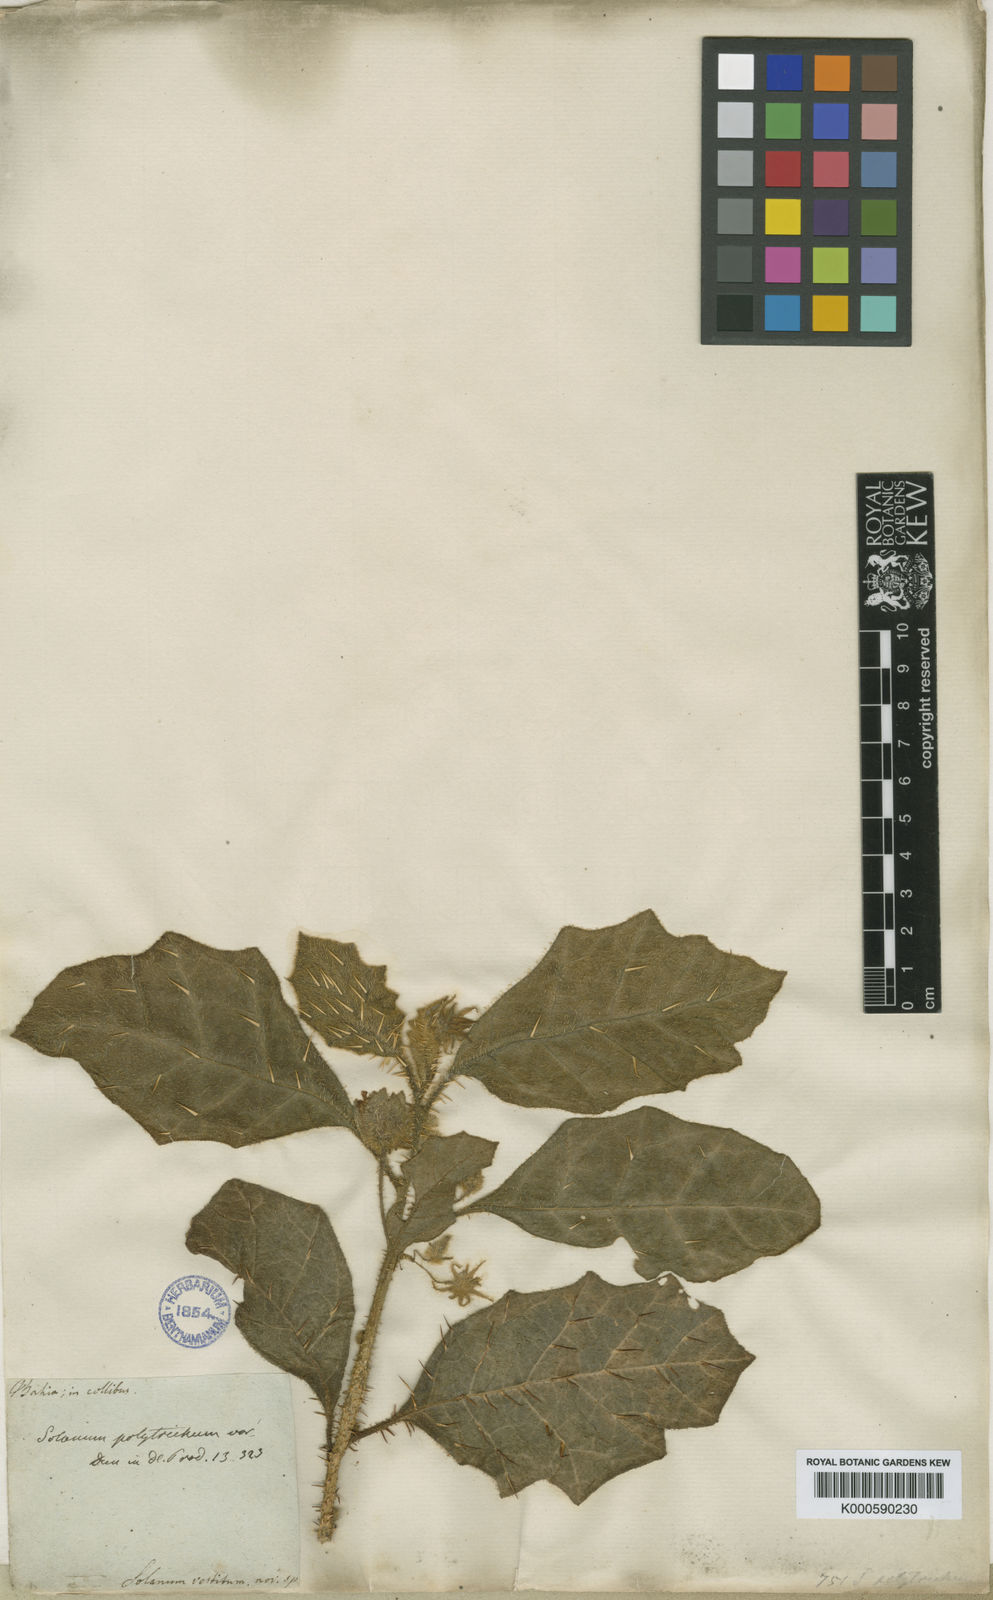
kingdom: Plantae
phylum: Tracheophyta
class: Magnoliopsida
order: Solanales
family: Solanaceae
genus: Solanum
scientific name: Solanum polytrichum
